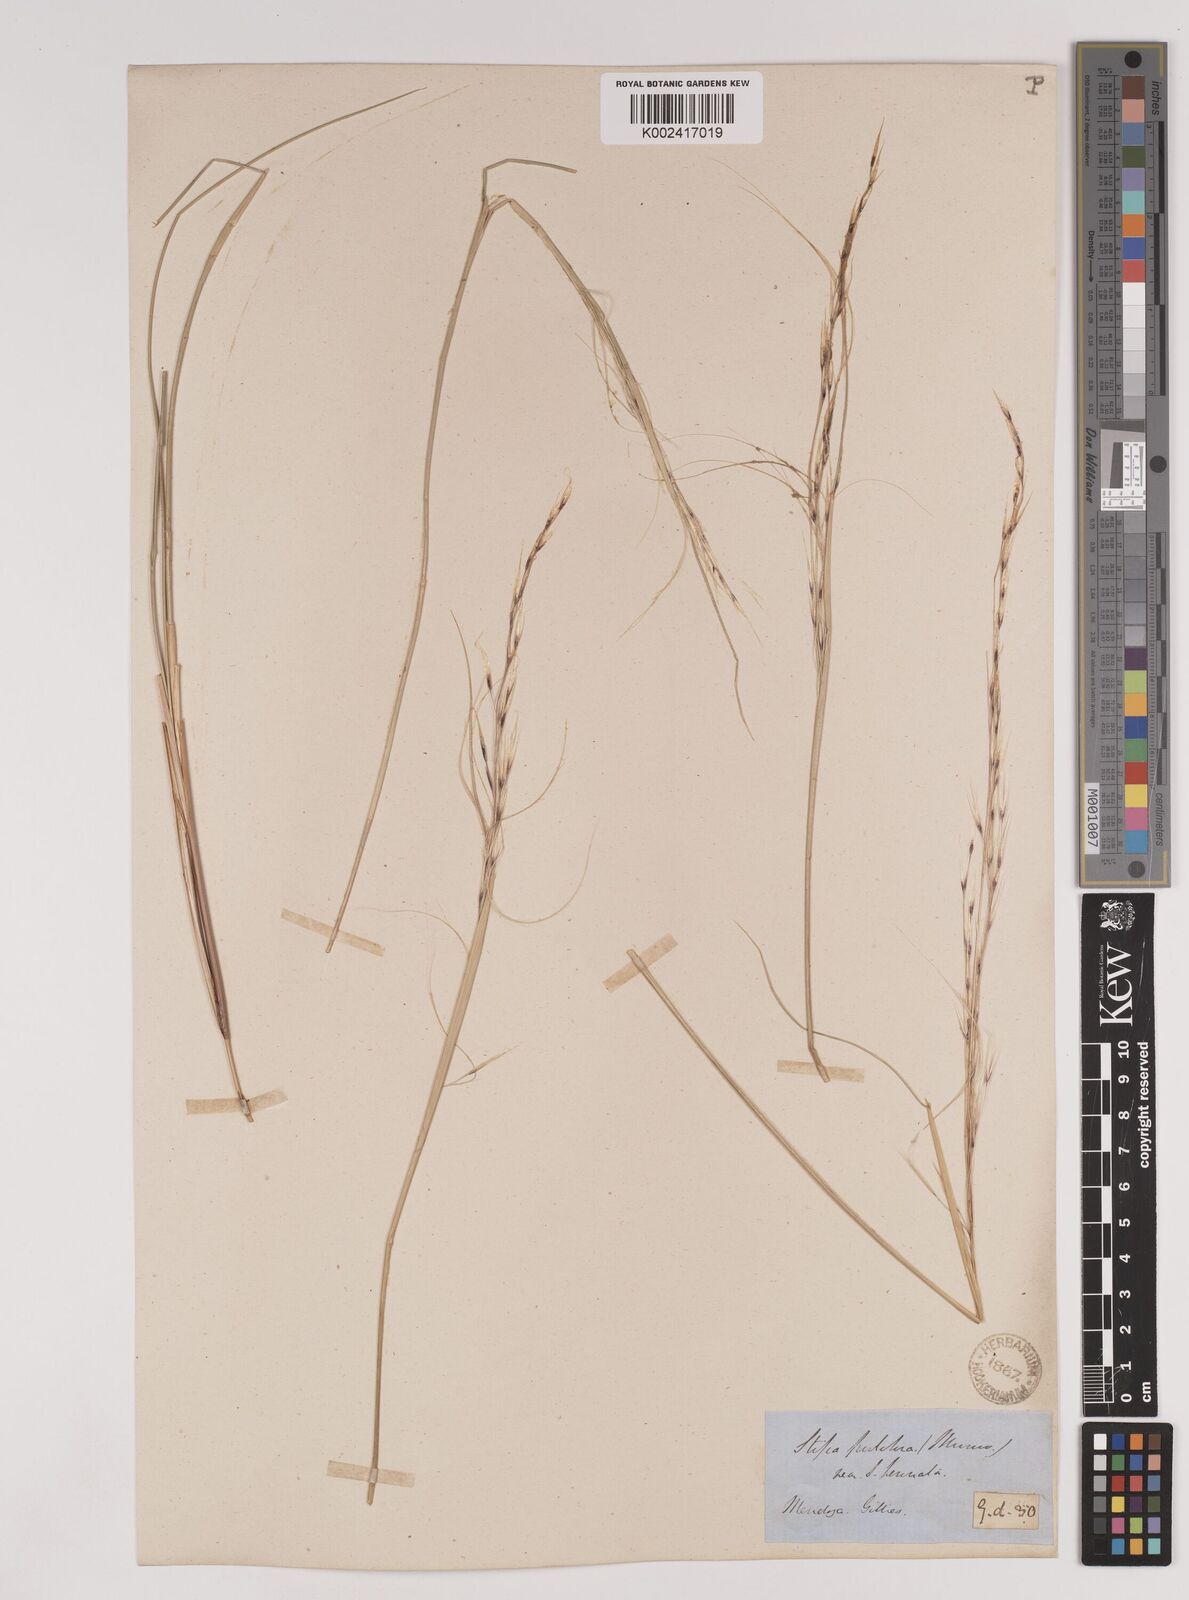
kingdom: Plantae
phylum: Tracheophyta
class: Liliopsida
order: Poales
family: Poaceae
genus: Stipa
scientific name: Stipa neaei
